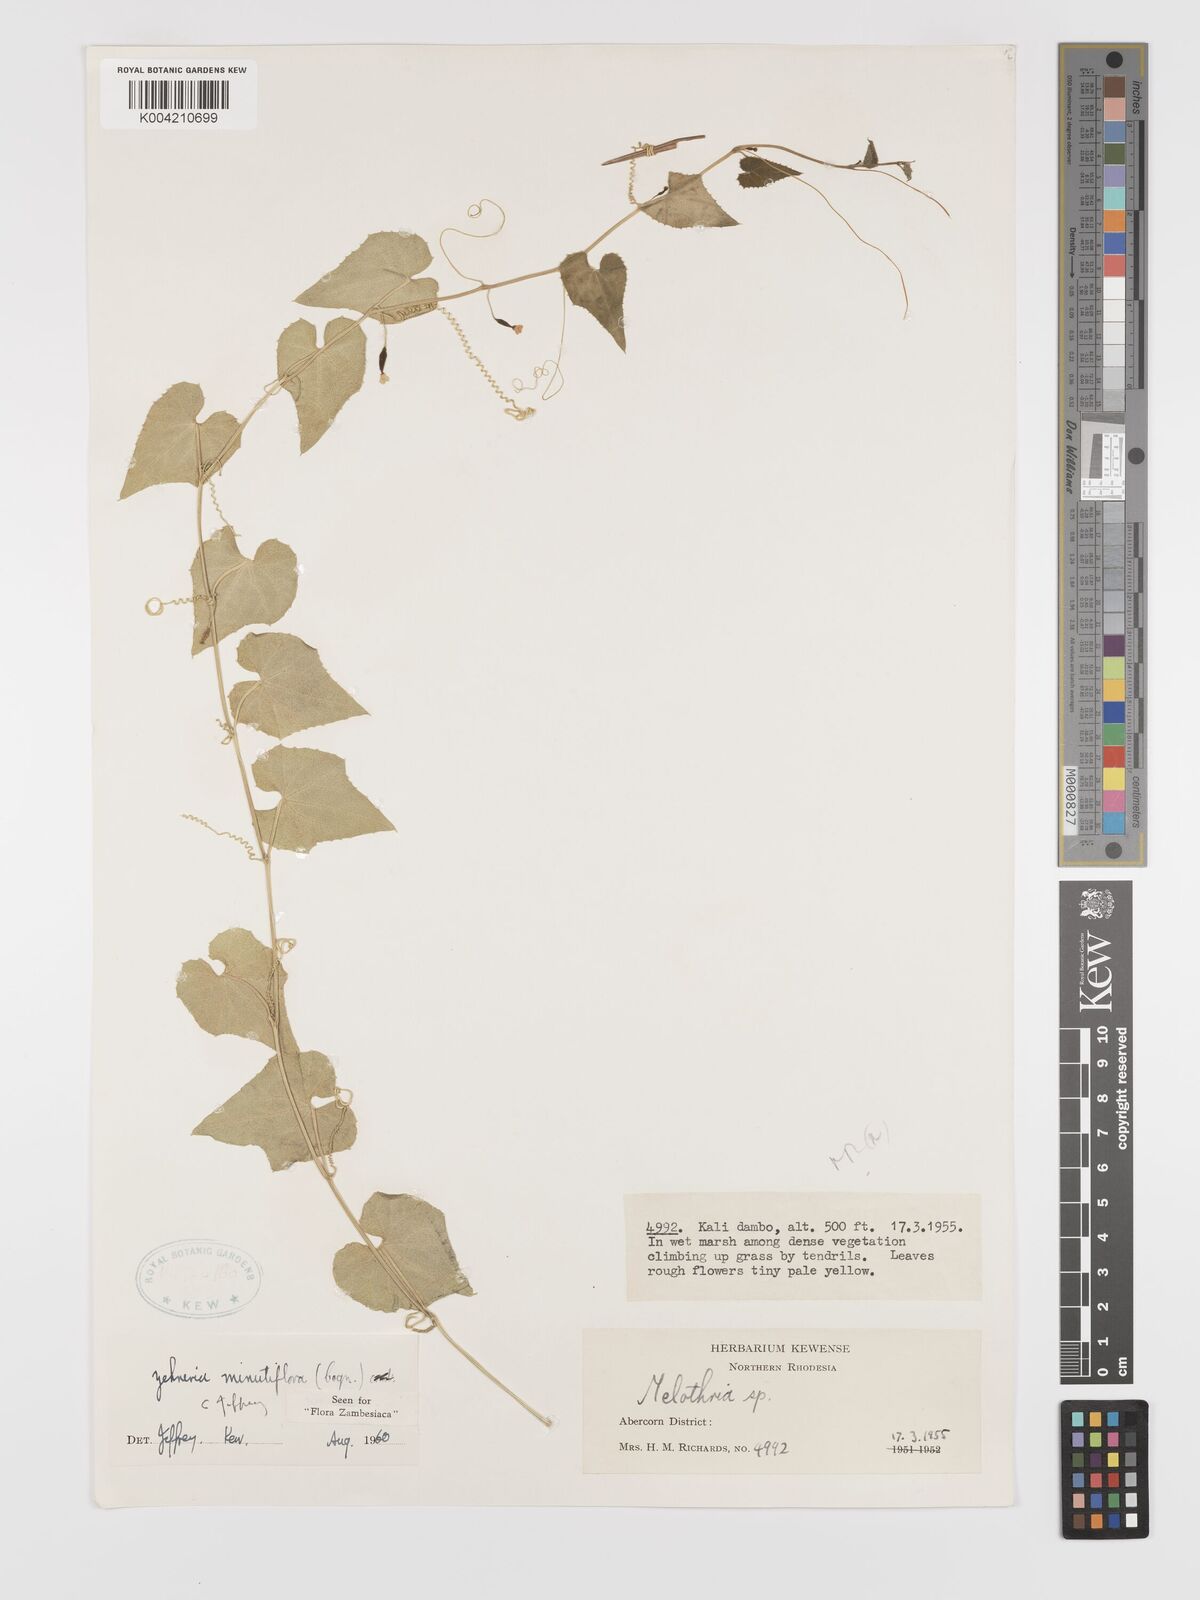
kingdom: Plantae
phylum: Tracheophyta
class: Magnoliopsida
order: Cucurbitales
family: Cucurbitaceae
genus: Zehneria
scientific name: Zehneria minutiflora
